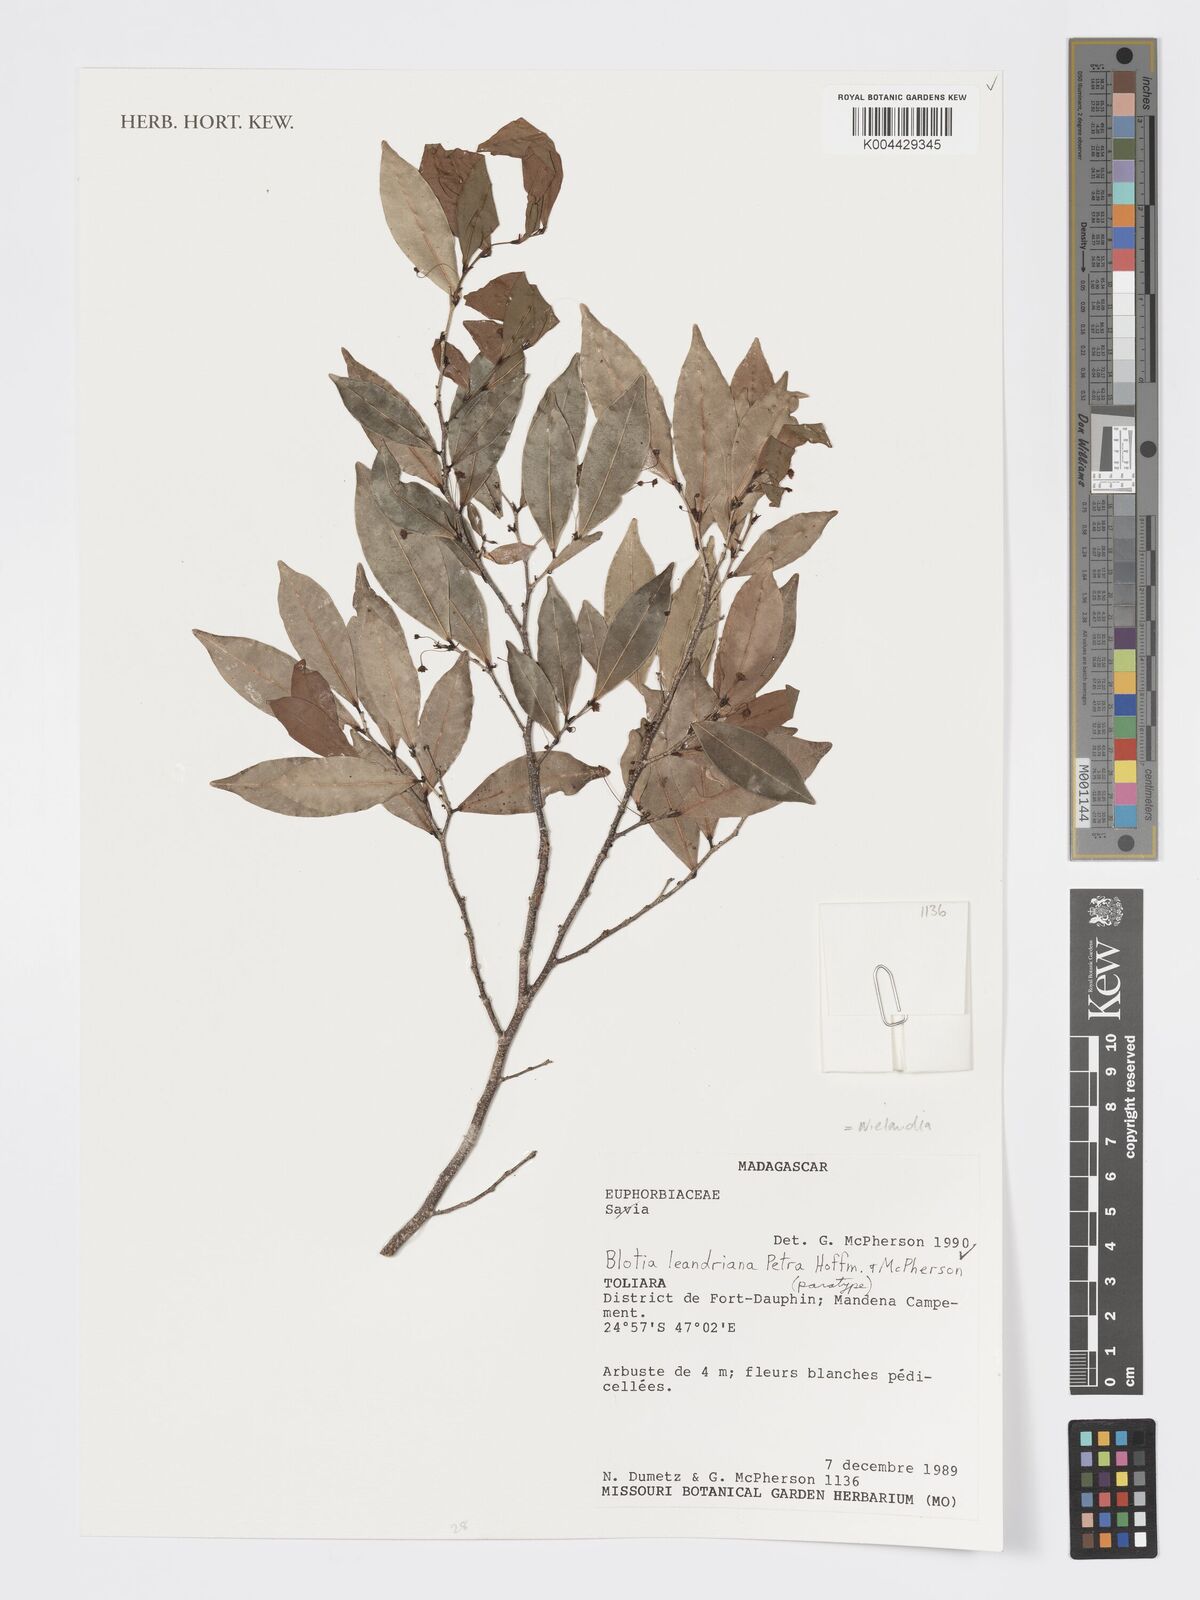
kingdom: Plantae
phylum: Tracheophyta
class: Magnoliopsida
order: Malpighiales
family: Phyllanthaceae
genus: Wielandia
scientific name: Wielandia leandriana
